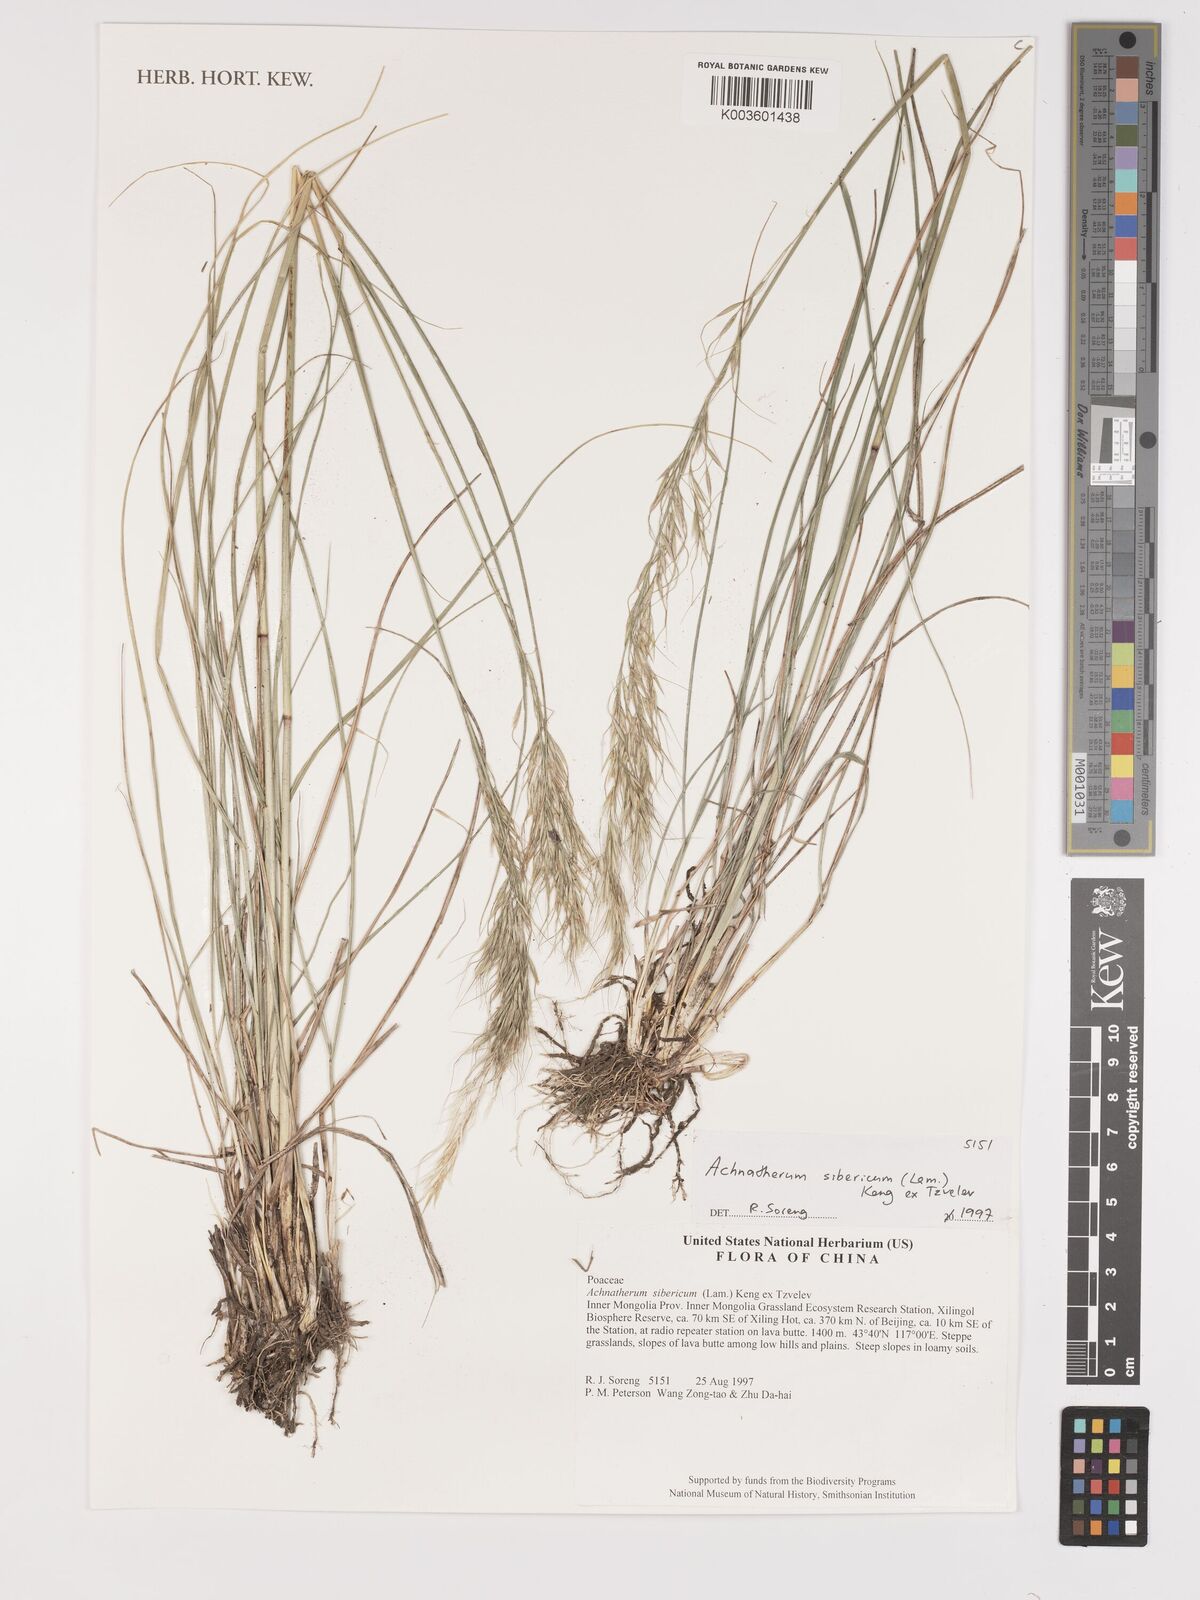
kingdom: Plantae
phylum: Tracheophyta
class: Liliopsida
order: Poales
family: Poaceae
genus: Achnatherum
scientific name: Achnatherum sibiricum
